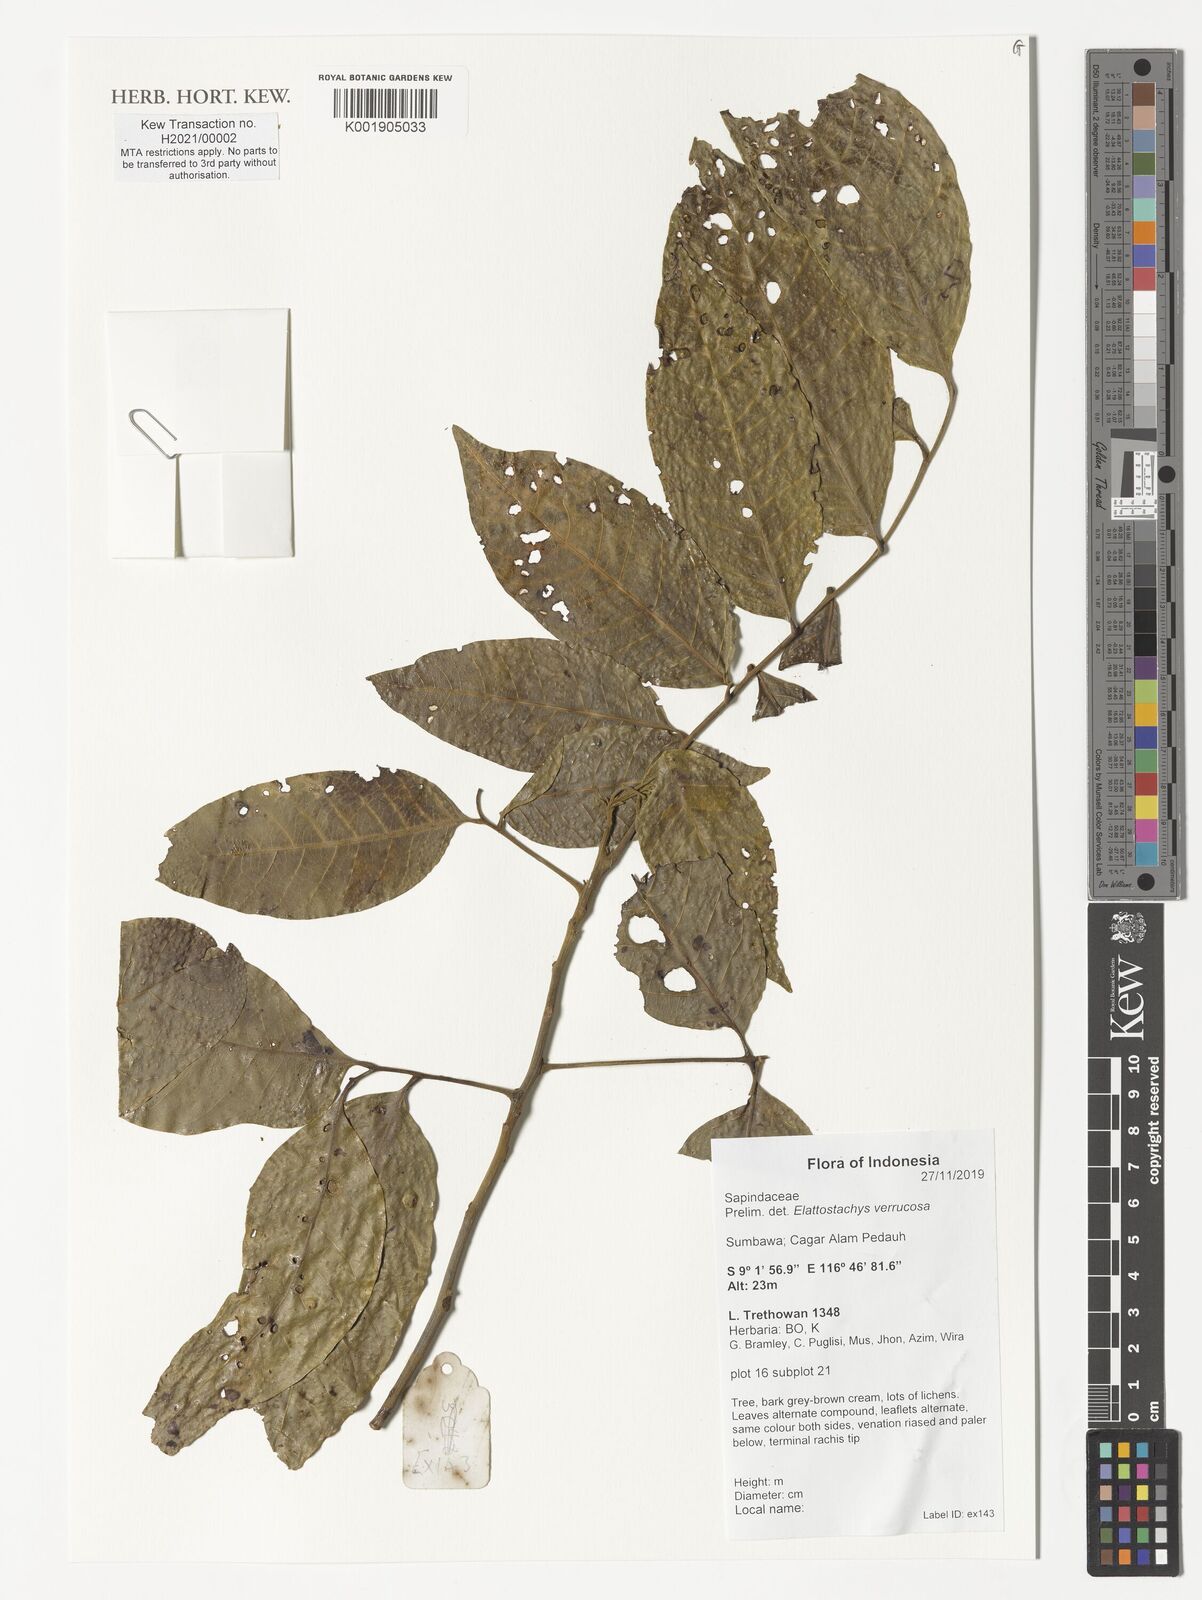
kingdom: Plantae
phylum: Tracheophyta
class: Magnoliopsida
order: Sapindales
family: Sapindaceae
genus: Elattostachys
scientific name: Elattostachys verrucosa
